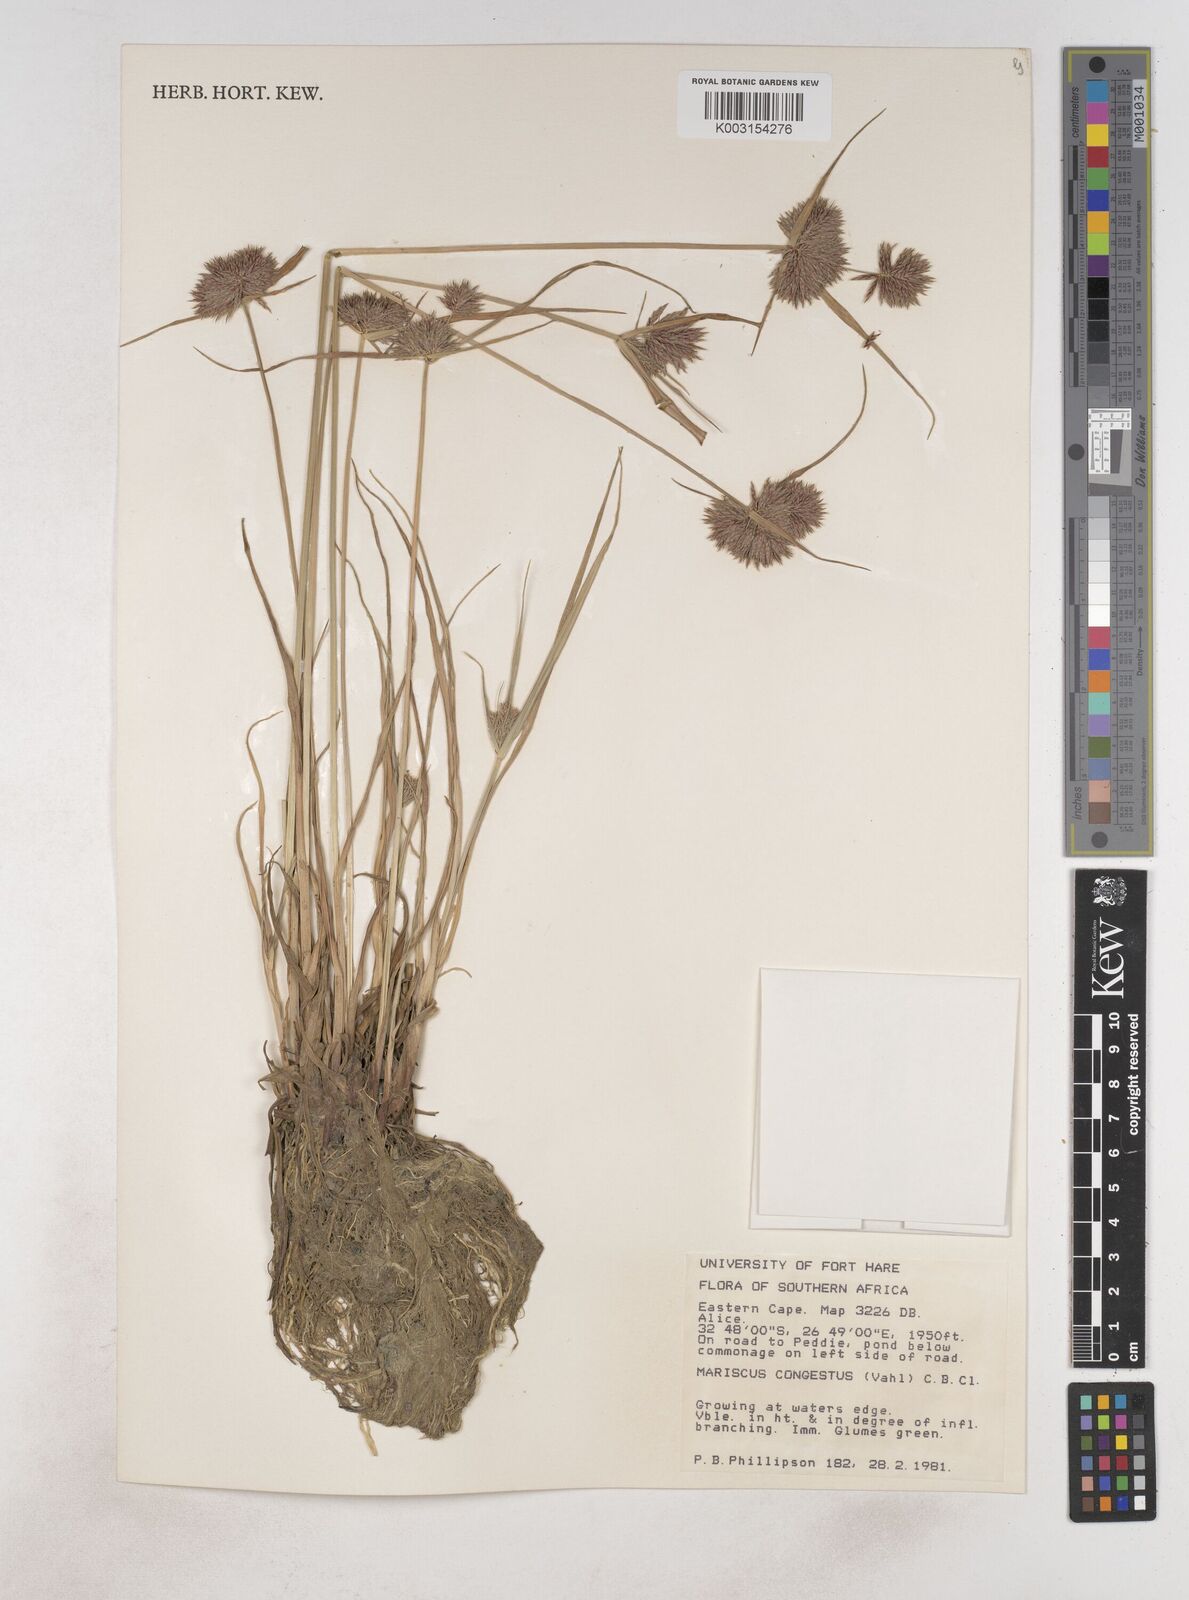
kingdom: Plantae
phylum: Tracheophyta
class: Liliopsida
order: Poales
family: Cyperaceae
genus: Cyperus
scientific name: Cyperus congestus
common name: Dense flat sedge
